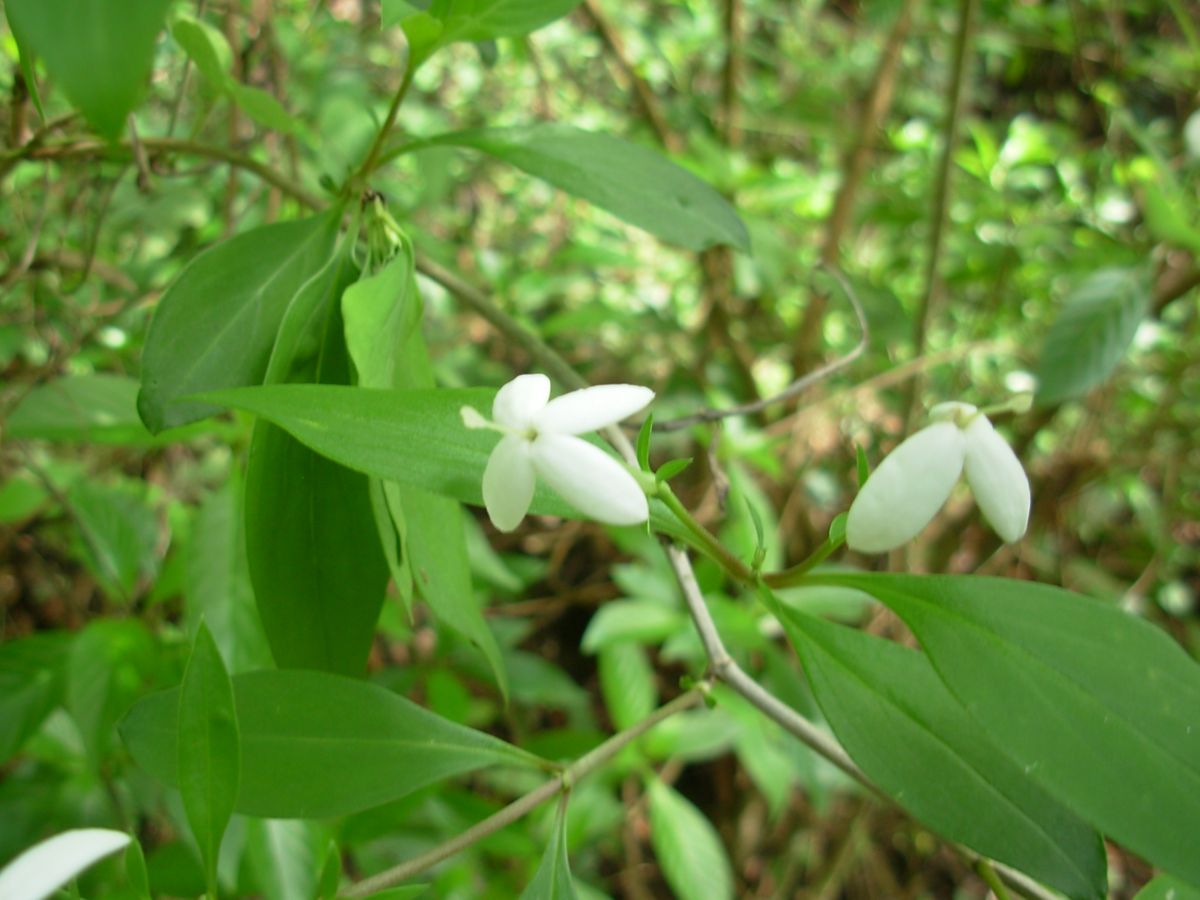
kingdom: Plantae
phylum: Tracheophyta
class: Magnoliopsida
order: Gentianales
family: Rubiaceae
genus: Bouvardia
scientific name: Bouvardia glabra
